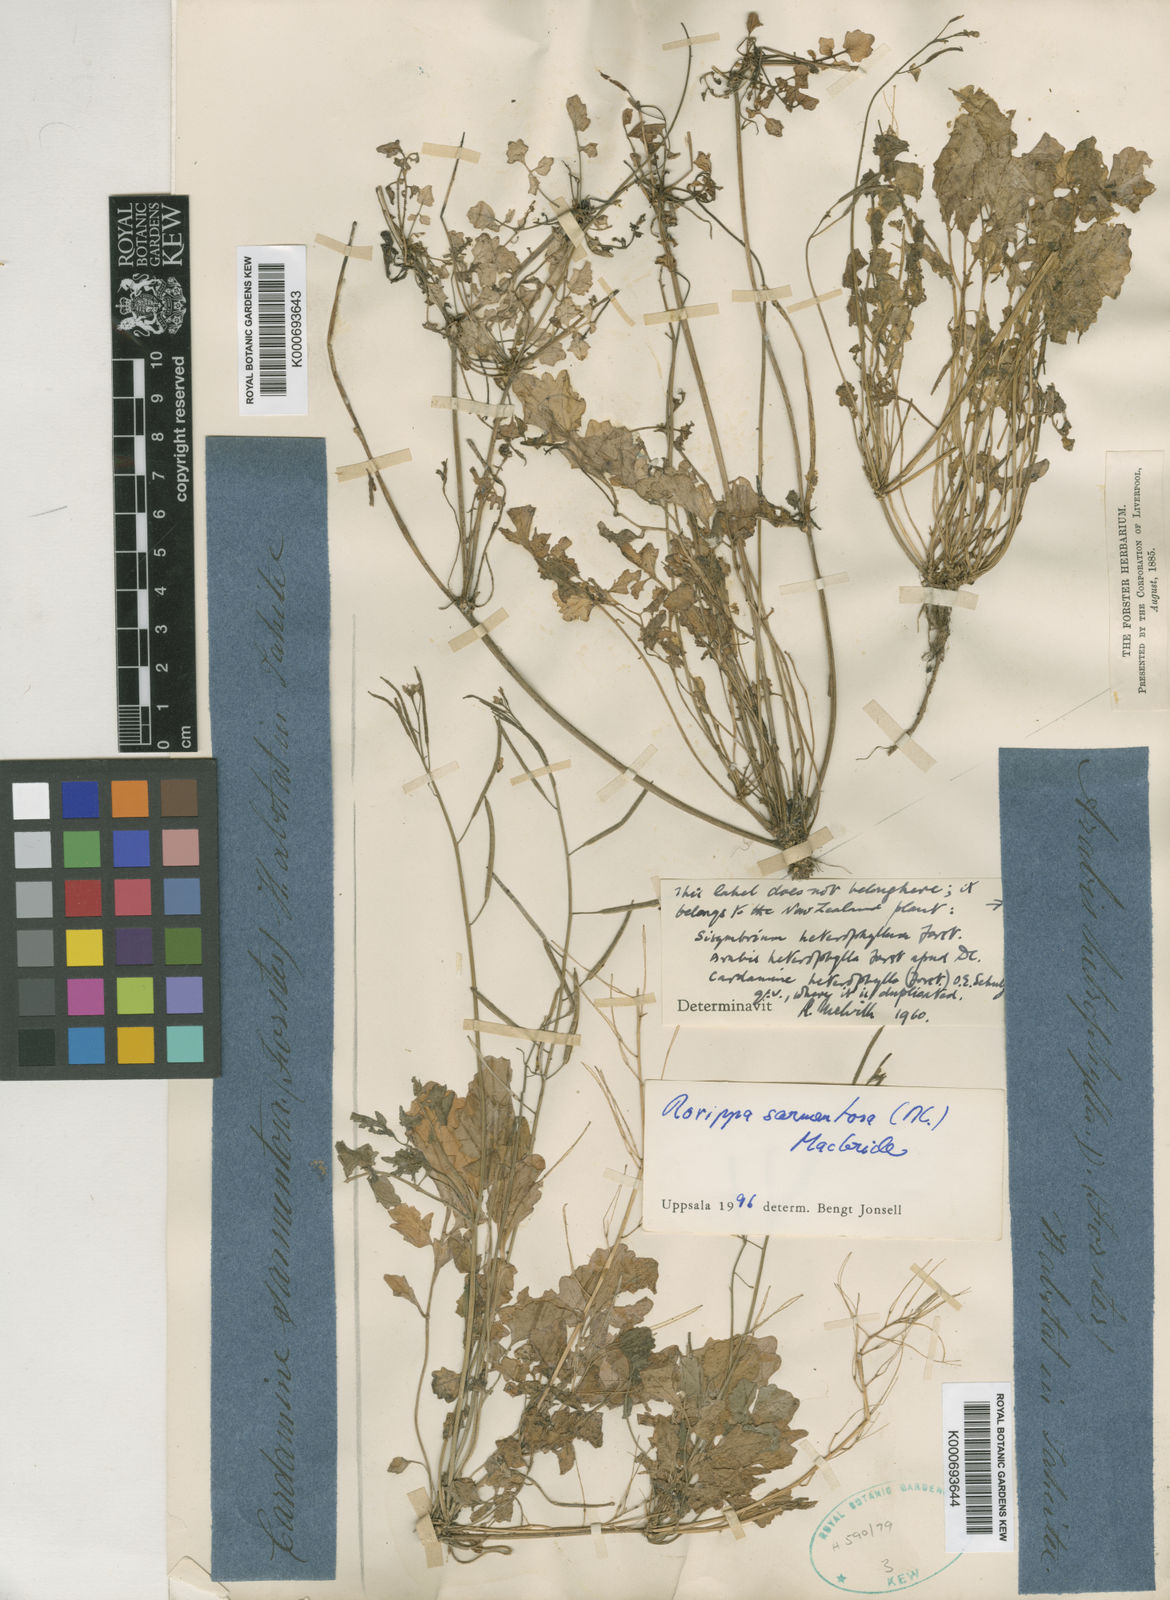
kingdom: Plantae
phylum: Tracheophyta
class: Magnoliopsida
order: Brassicales
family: Brassicaceae
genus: Rorippa
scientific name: Rorippa sarmentosa
